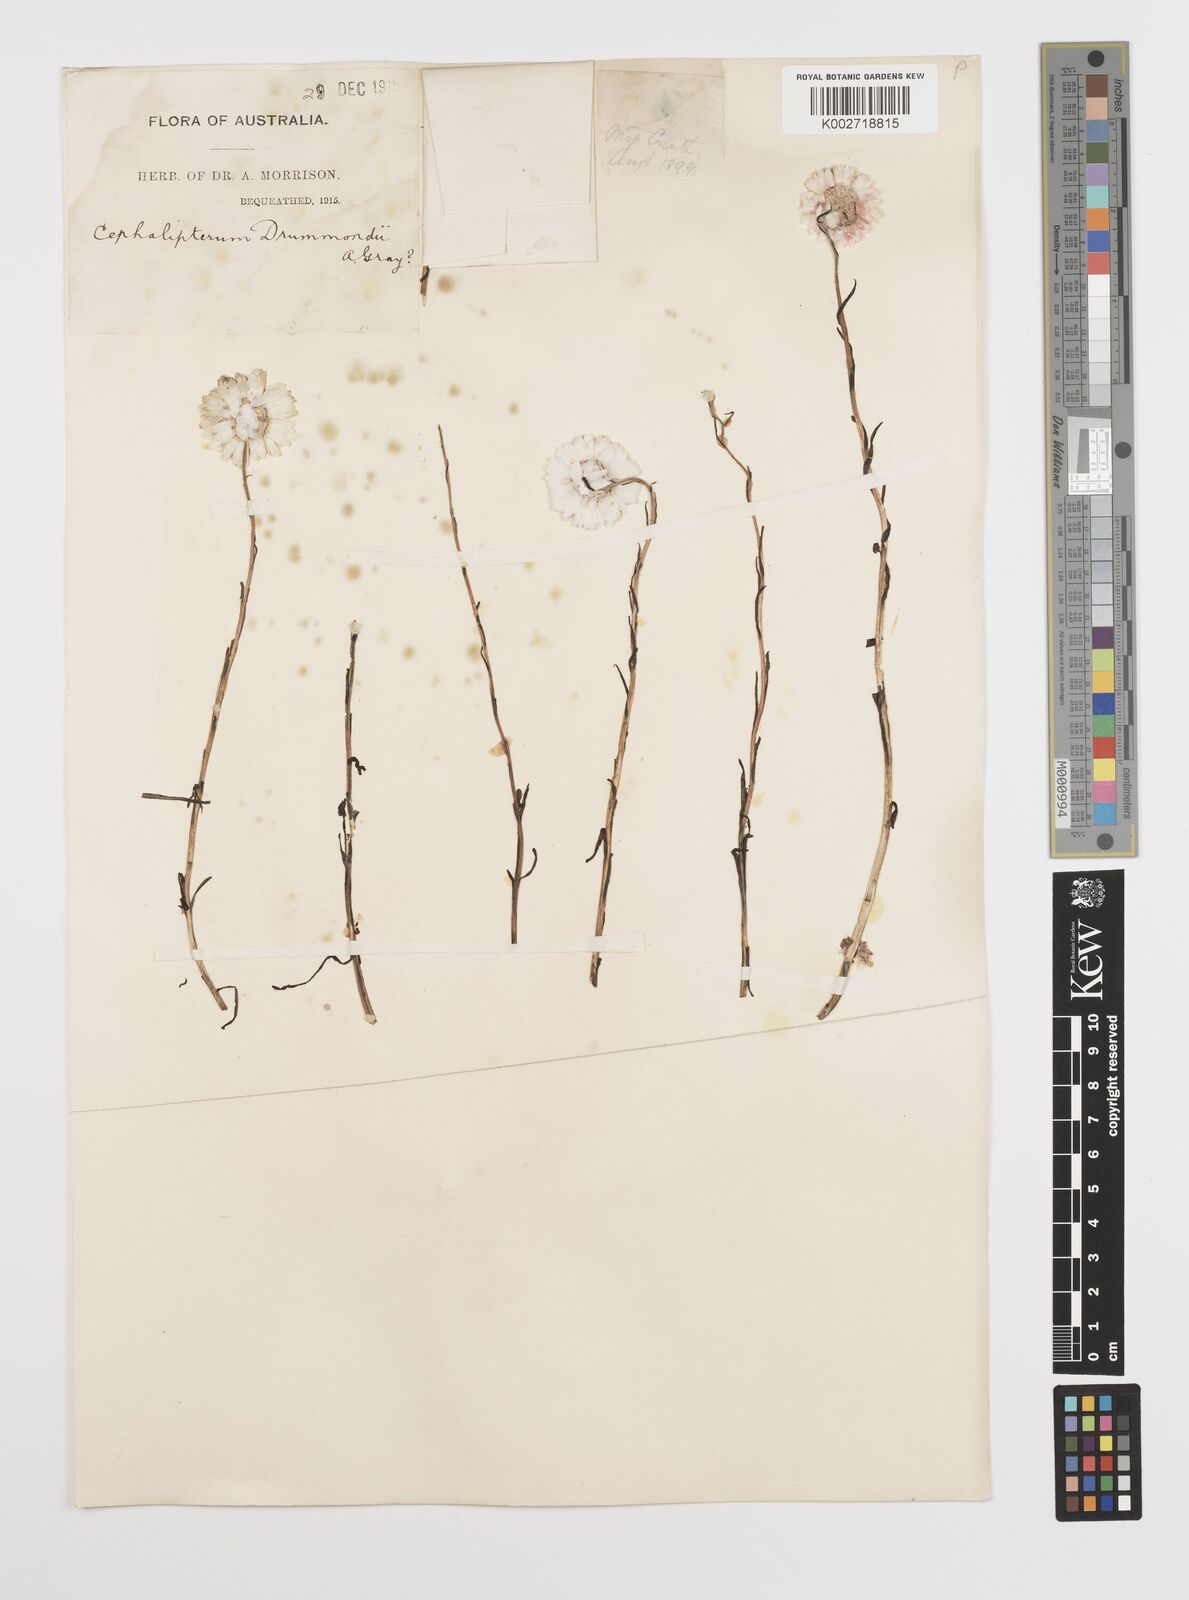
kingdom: Plantae
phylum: Tracheophyta
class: Magnoliopsida
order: Asterales
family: Asteraceae
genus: Cephalipterum
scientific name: Cephalipterum drummondii
